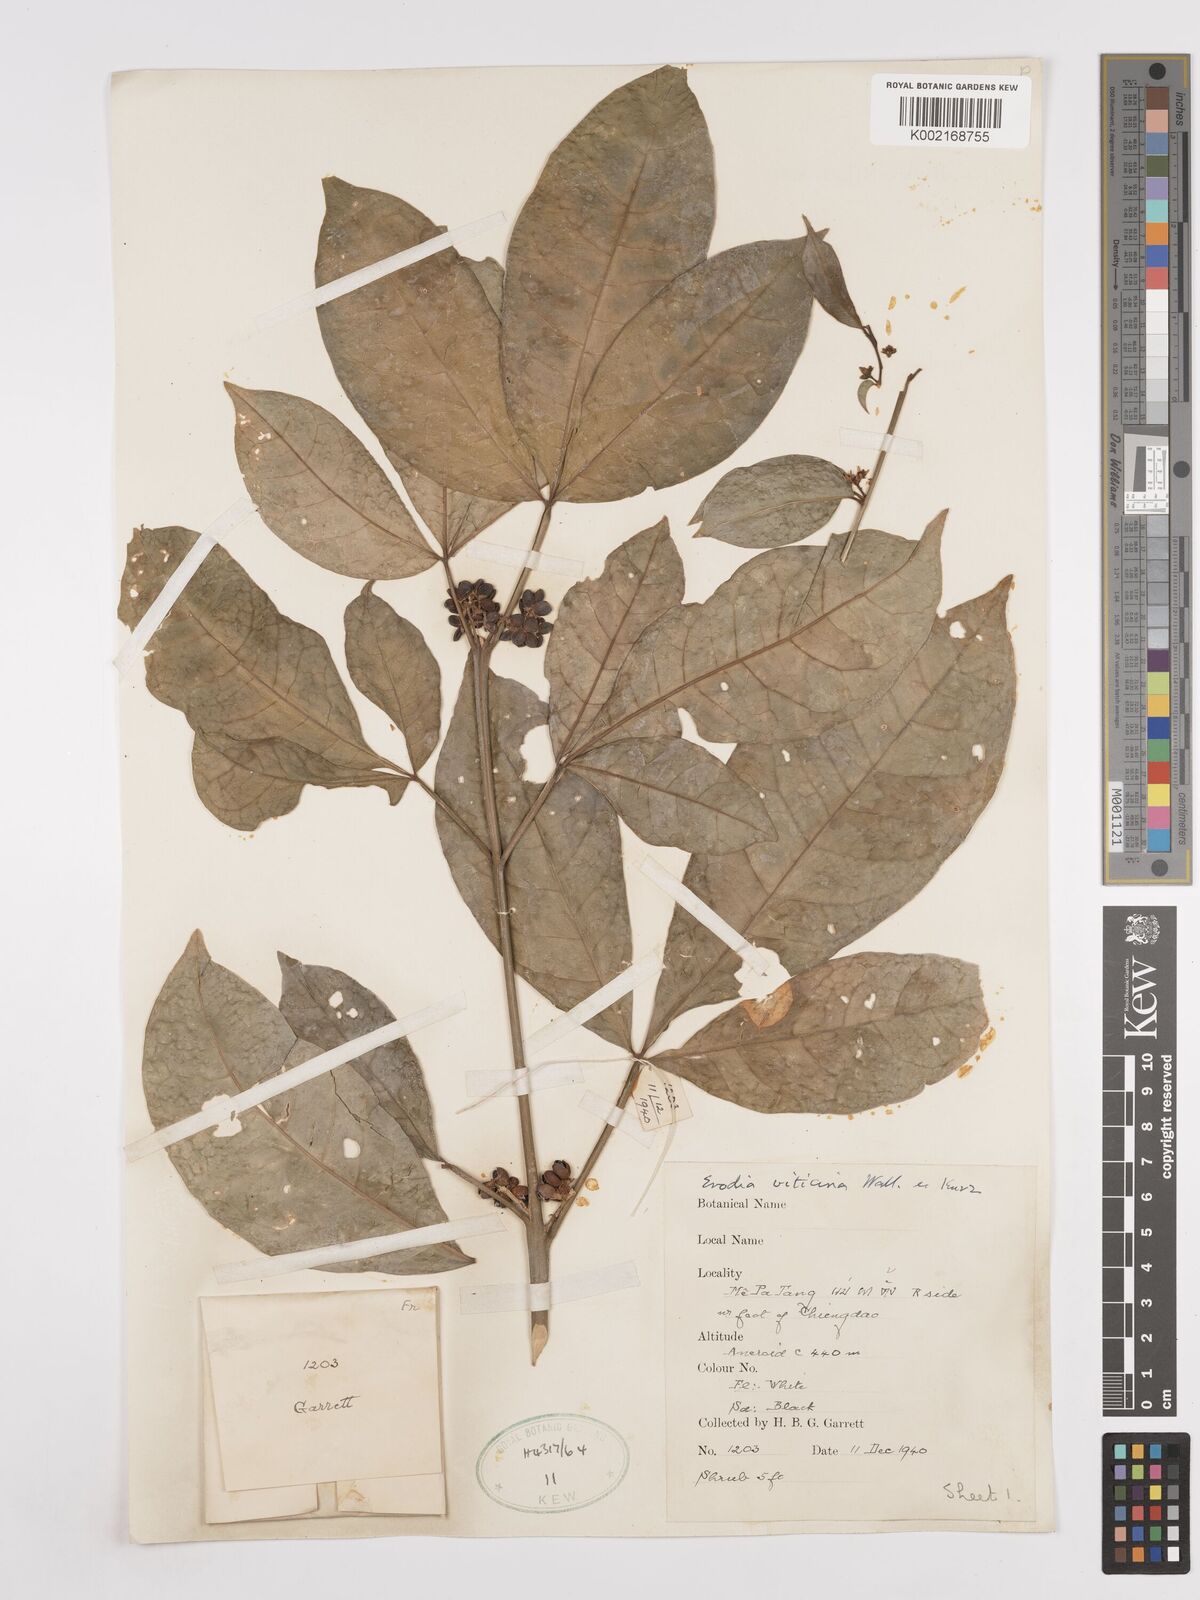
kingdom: Plantae
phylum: Tracheophyta
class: Magnoliopsida
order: Sapindales
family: Rutaceae
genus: Euodia
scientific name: Euodia
